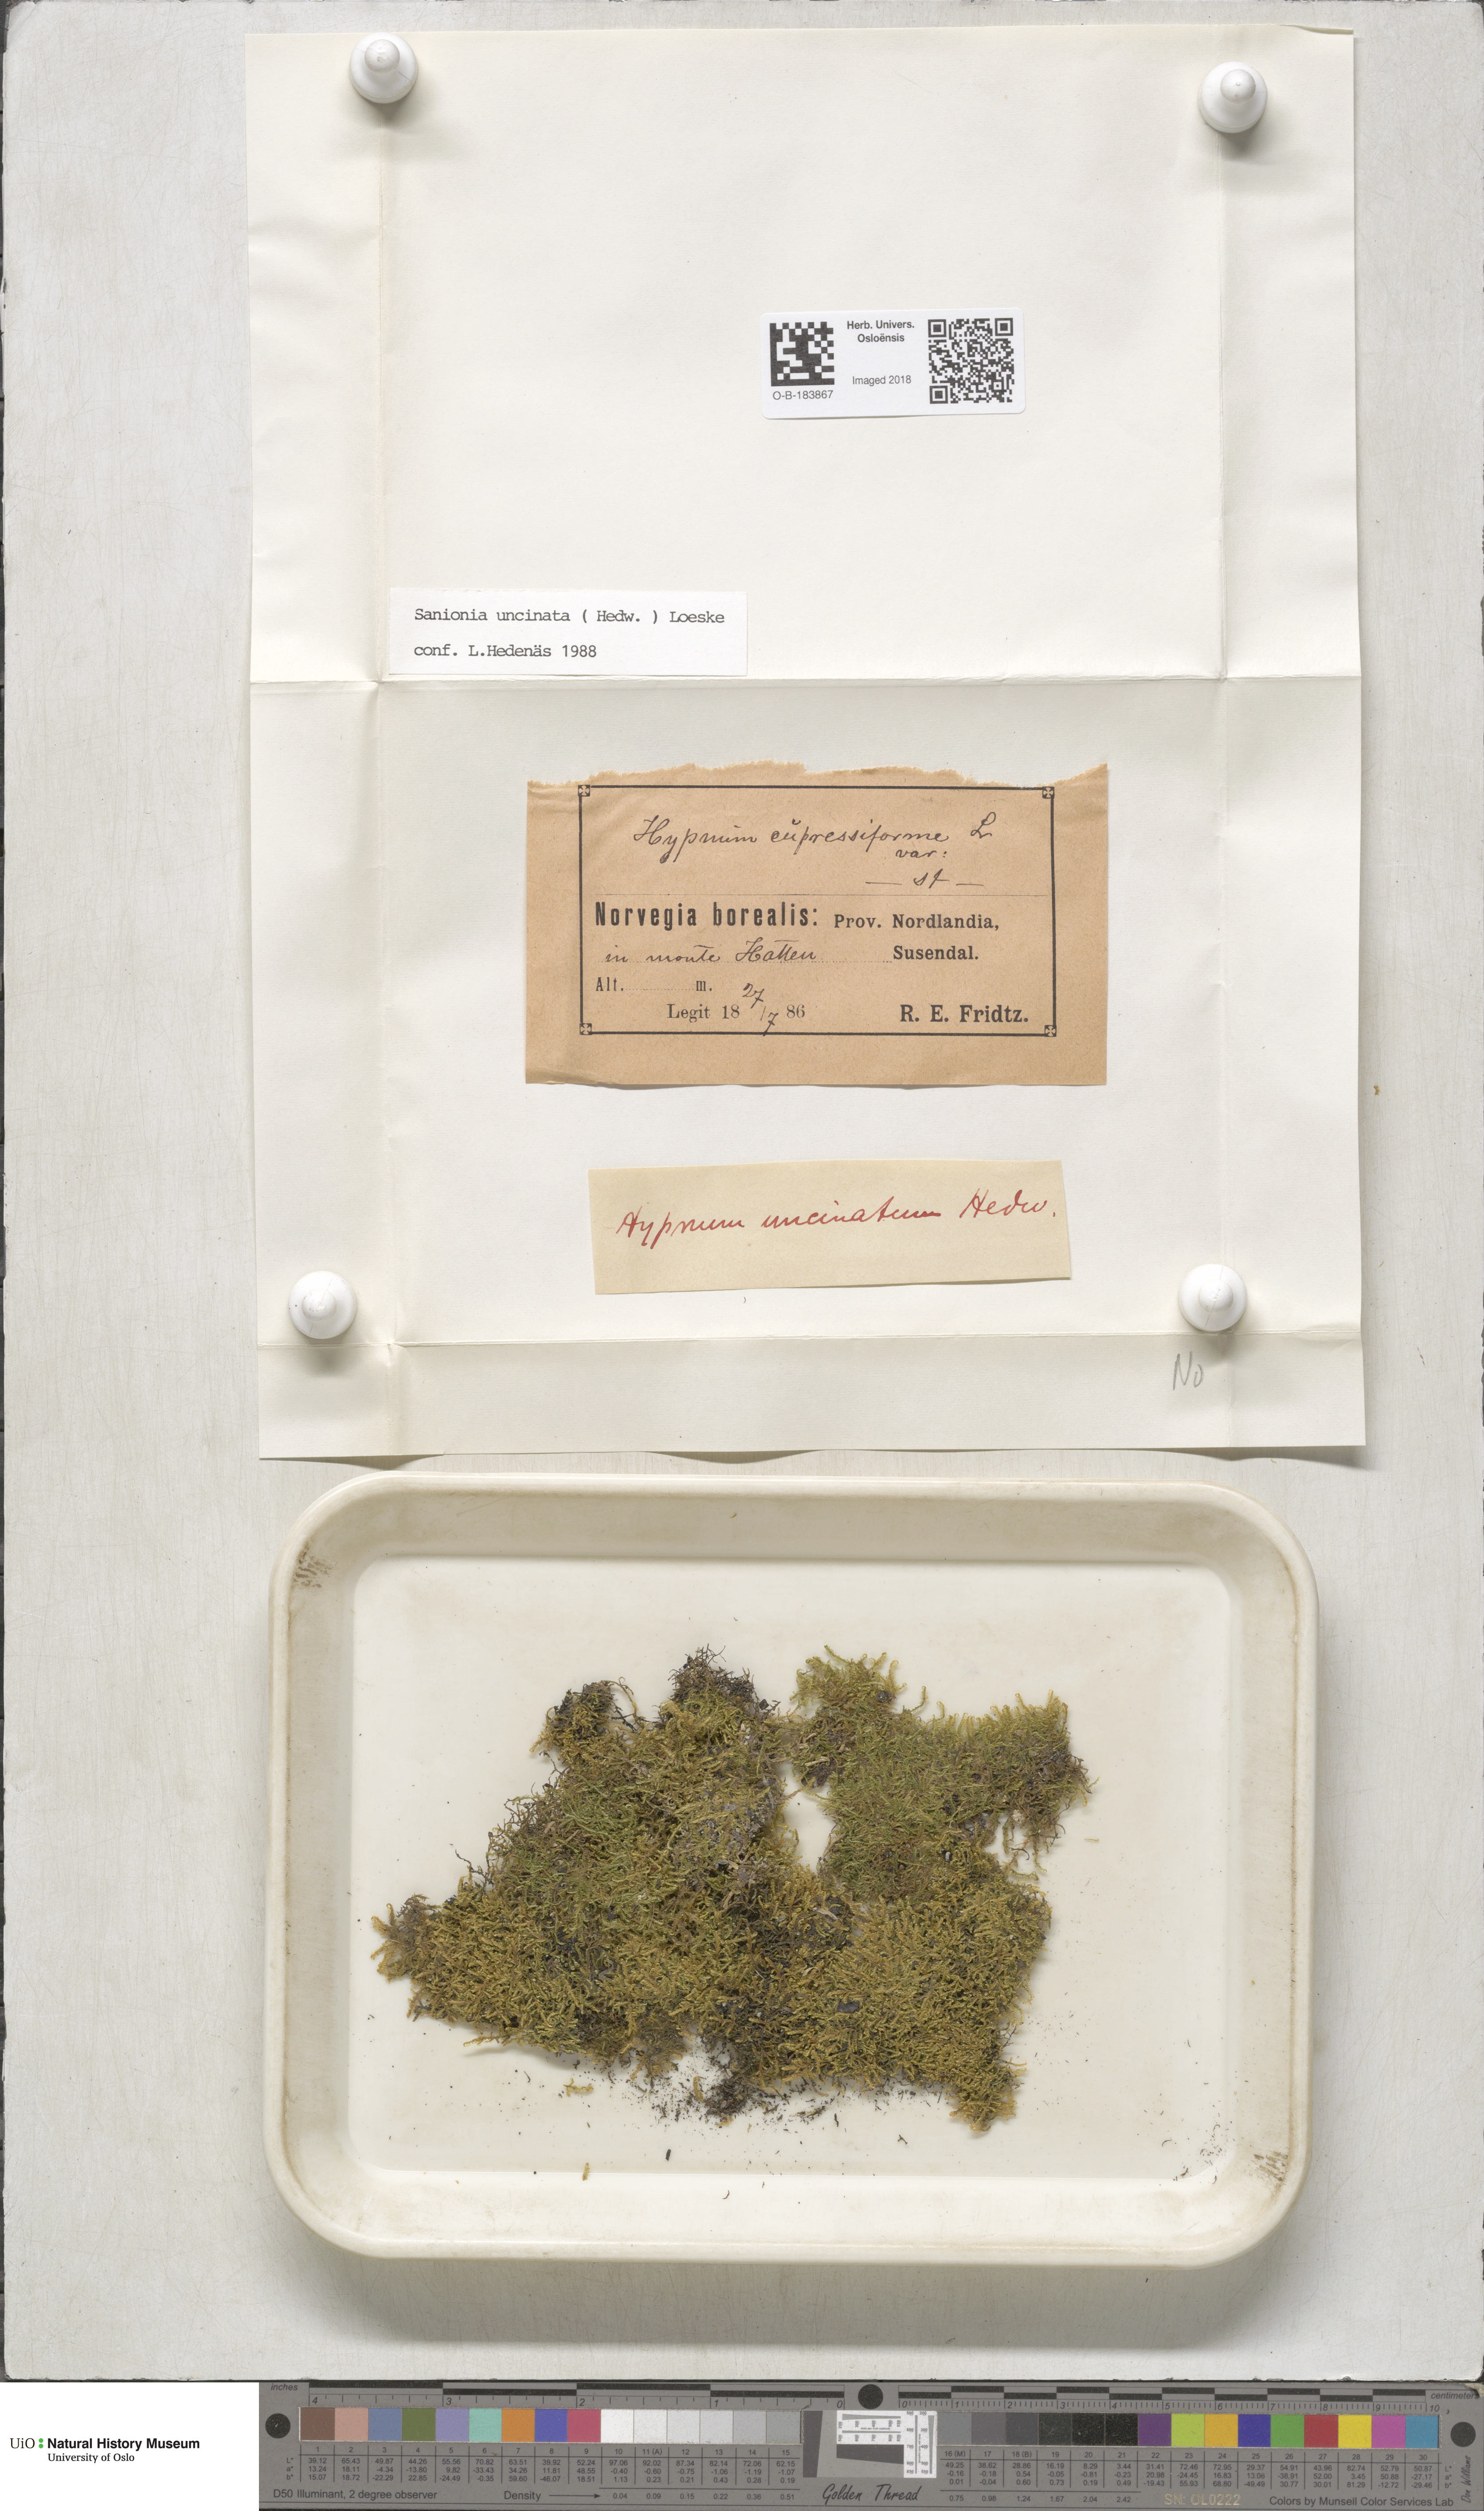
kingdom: Plantae
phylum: Bryophyta
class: Bryopsida
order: Hypnales
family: Scorpidiaceae
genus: Sanionia
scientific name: Sanionia uncinata
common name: Sickle moss
